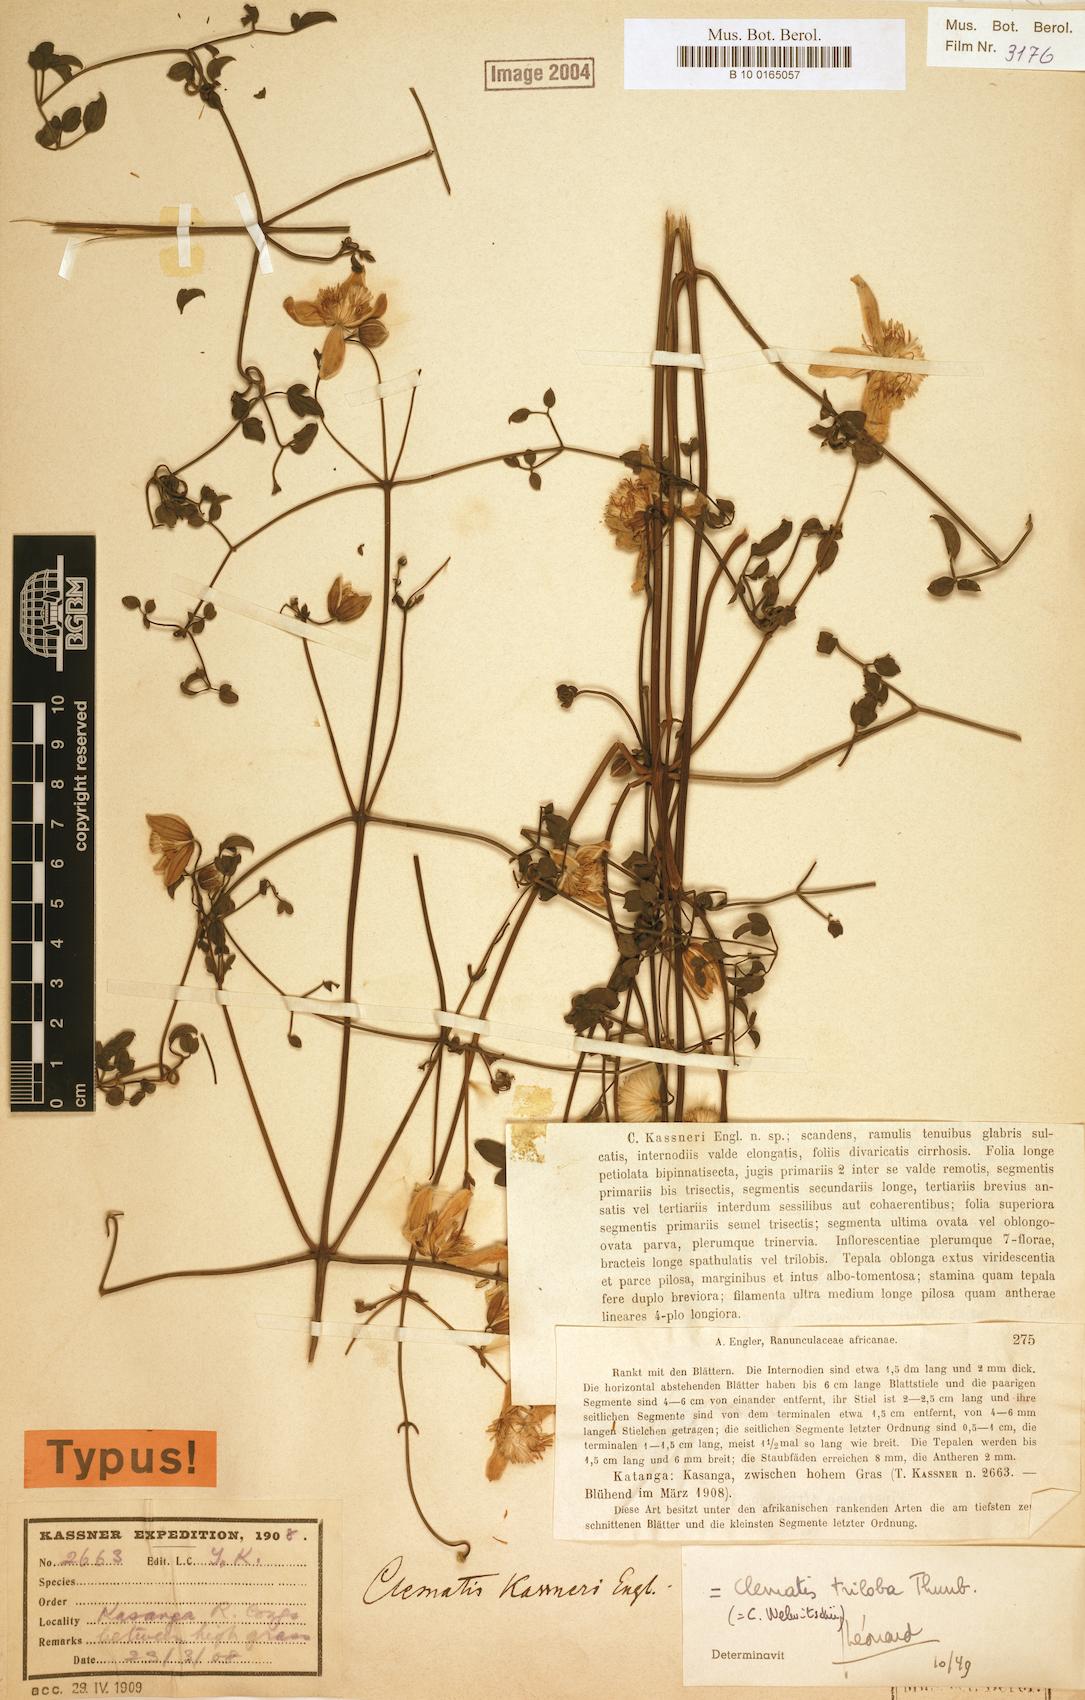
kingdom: Plantae
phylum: Tracheophyta
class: Magnoliopsida
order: Ranunculales
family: Ranunculaceae
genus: Clematis
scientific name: Clematis welwitschii
